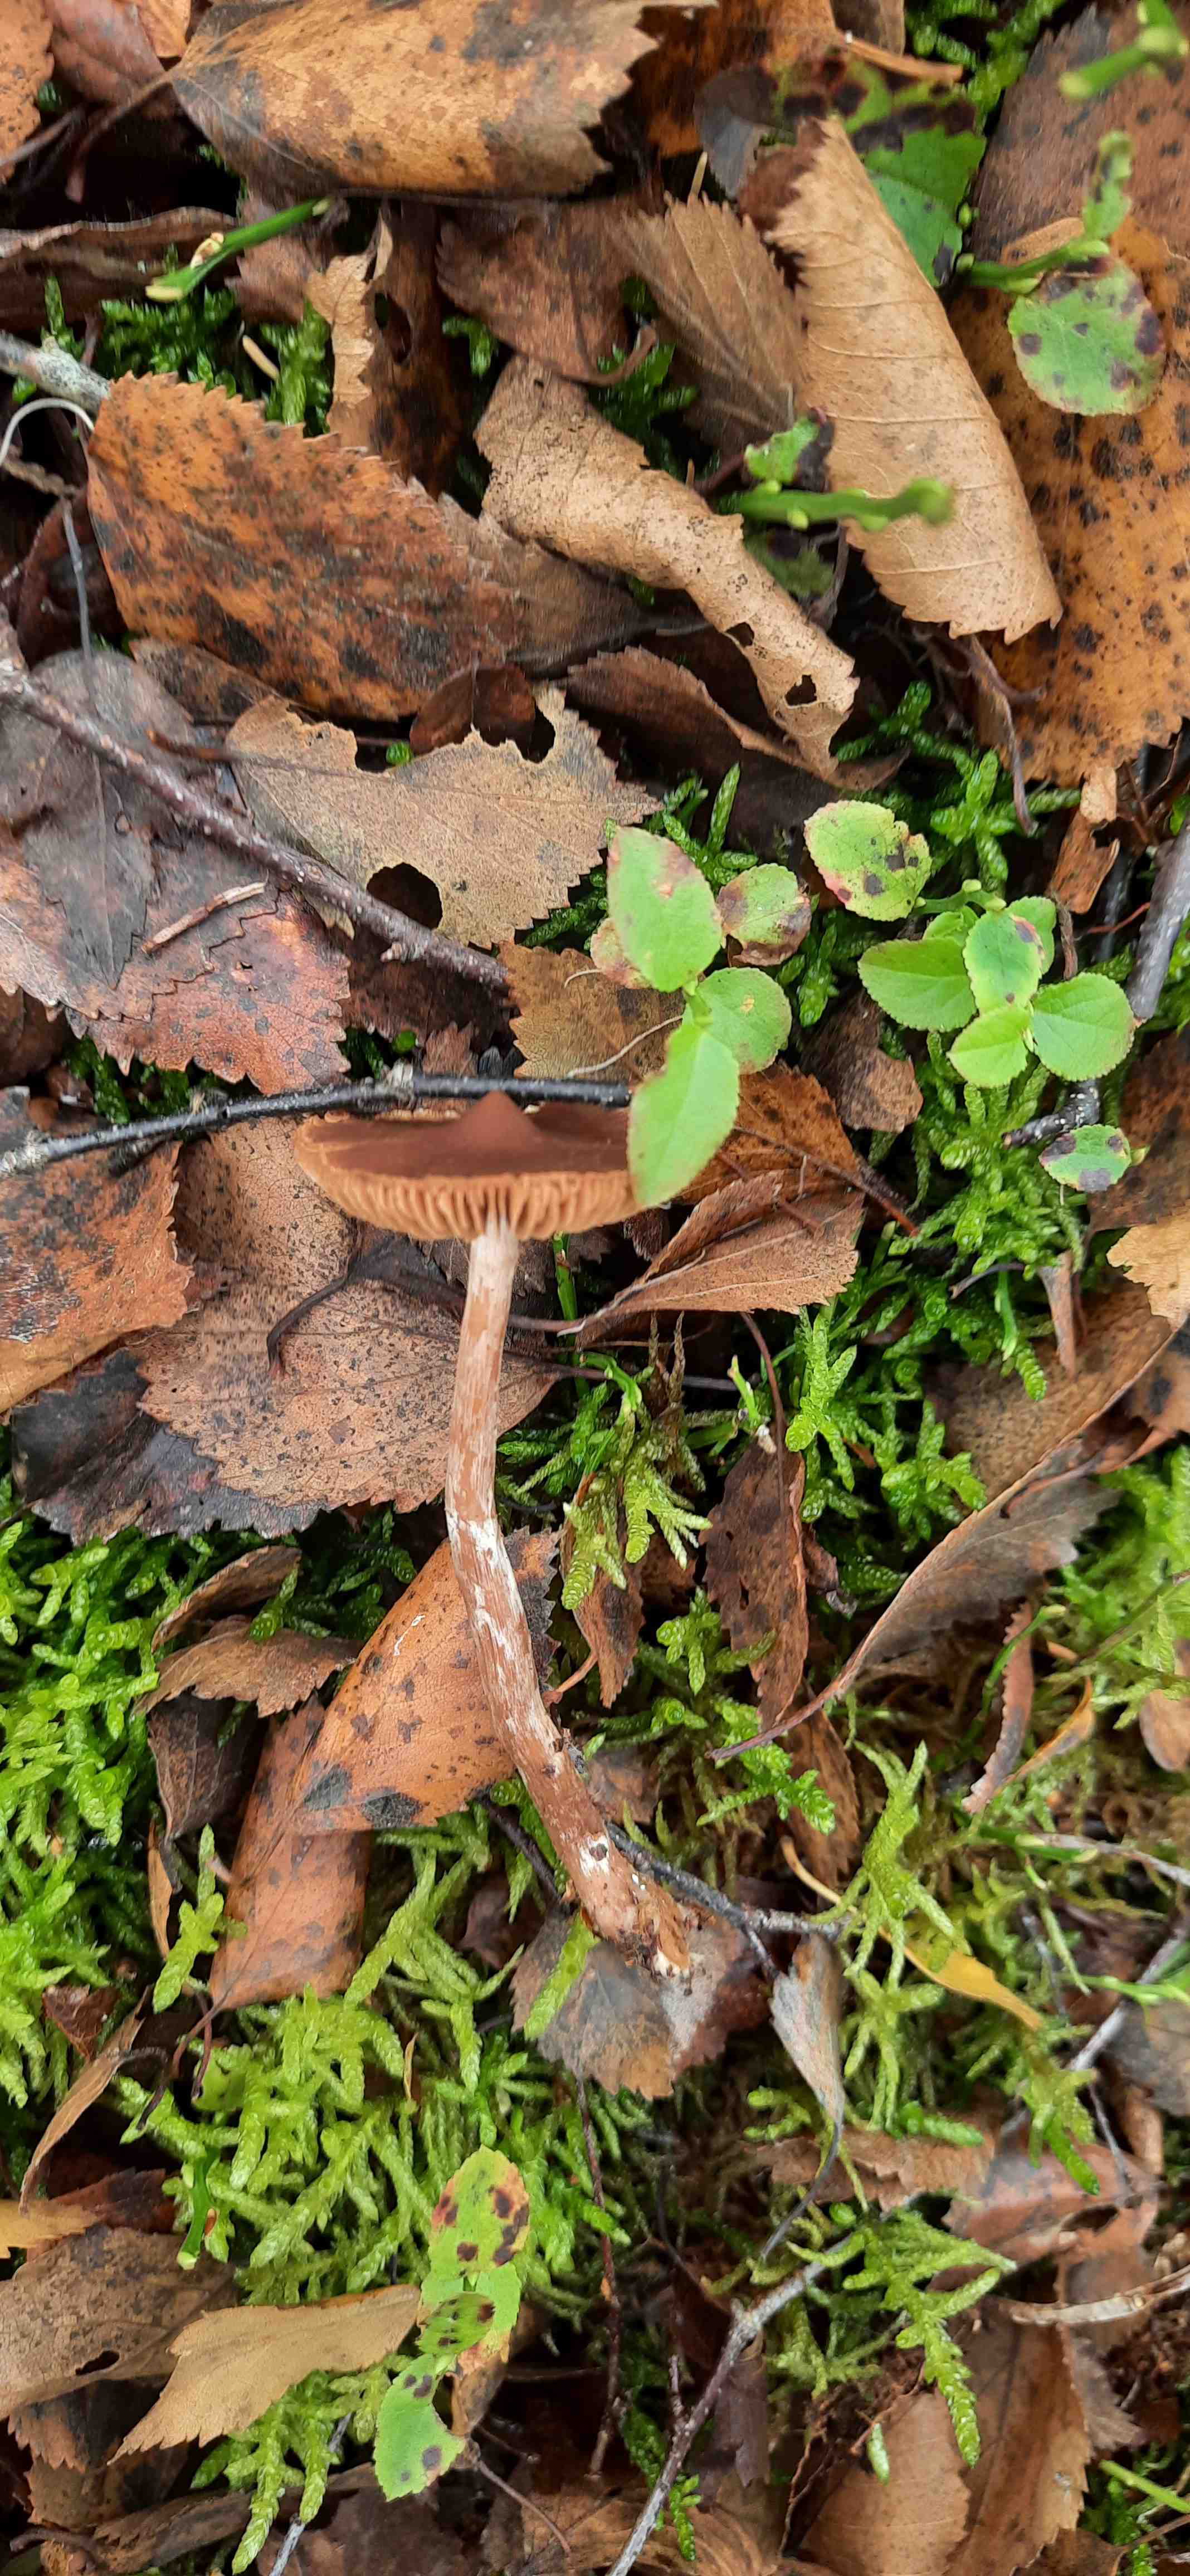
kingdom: Fungi
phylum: Basidiomycota
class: Agaricomycetes
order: Agaricales
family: Cortinariaceae
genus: Cortinarius
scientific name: Cortinarius
